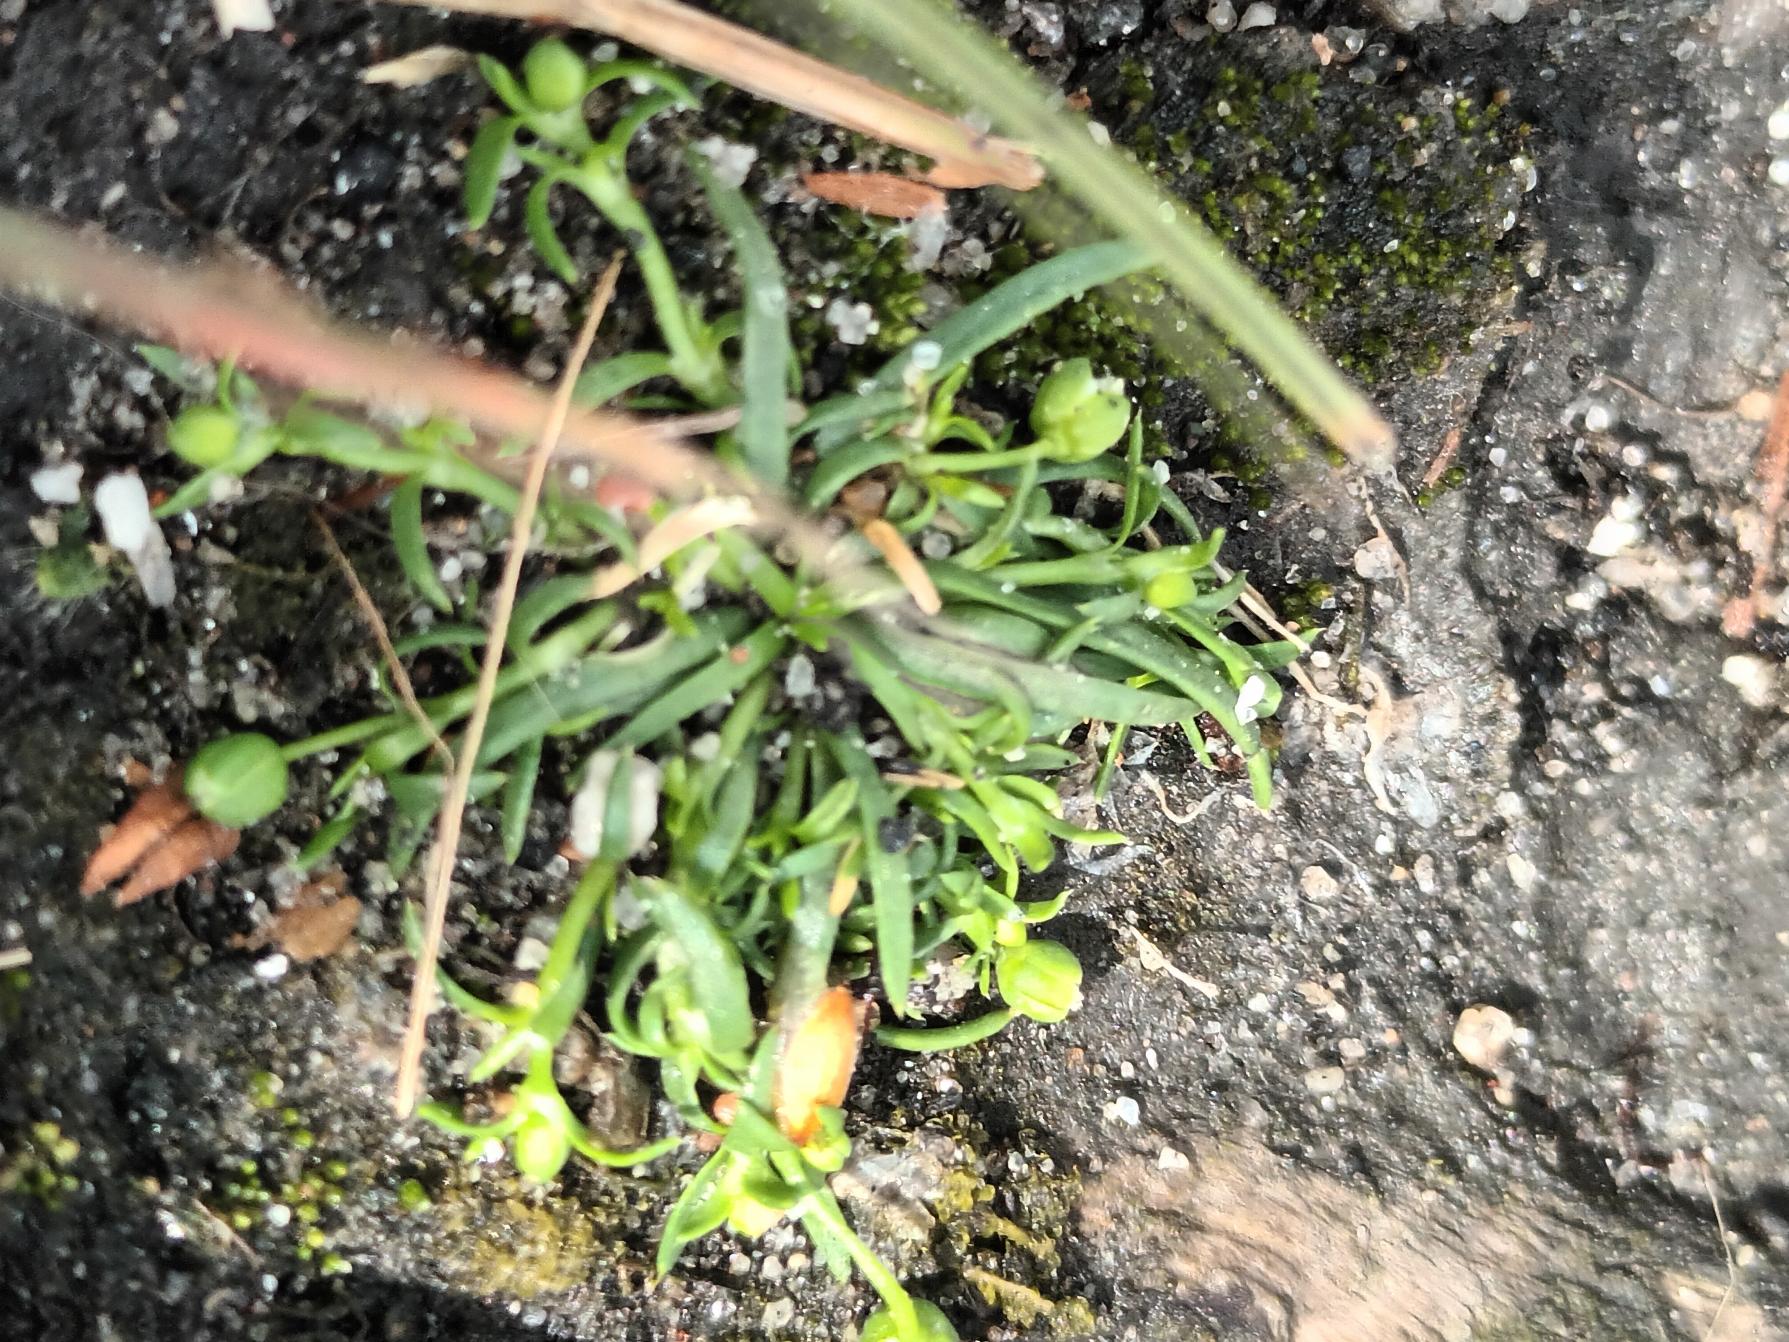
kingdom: Plantae
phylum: Tracheophyta
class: Magnoliopsida
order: Caryophyllales
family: Caryophyllaceae
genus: Sagina
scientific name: Sagina procumbens
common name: Almindelig firling
